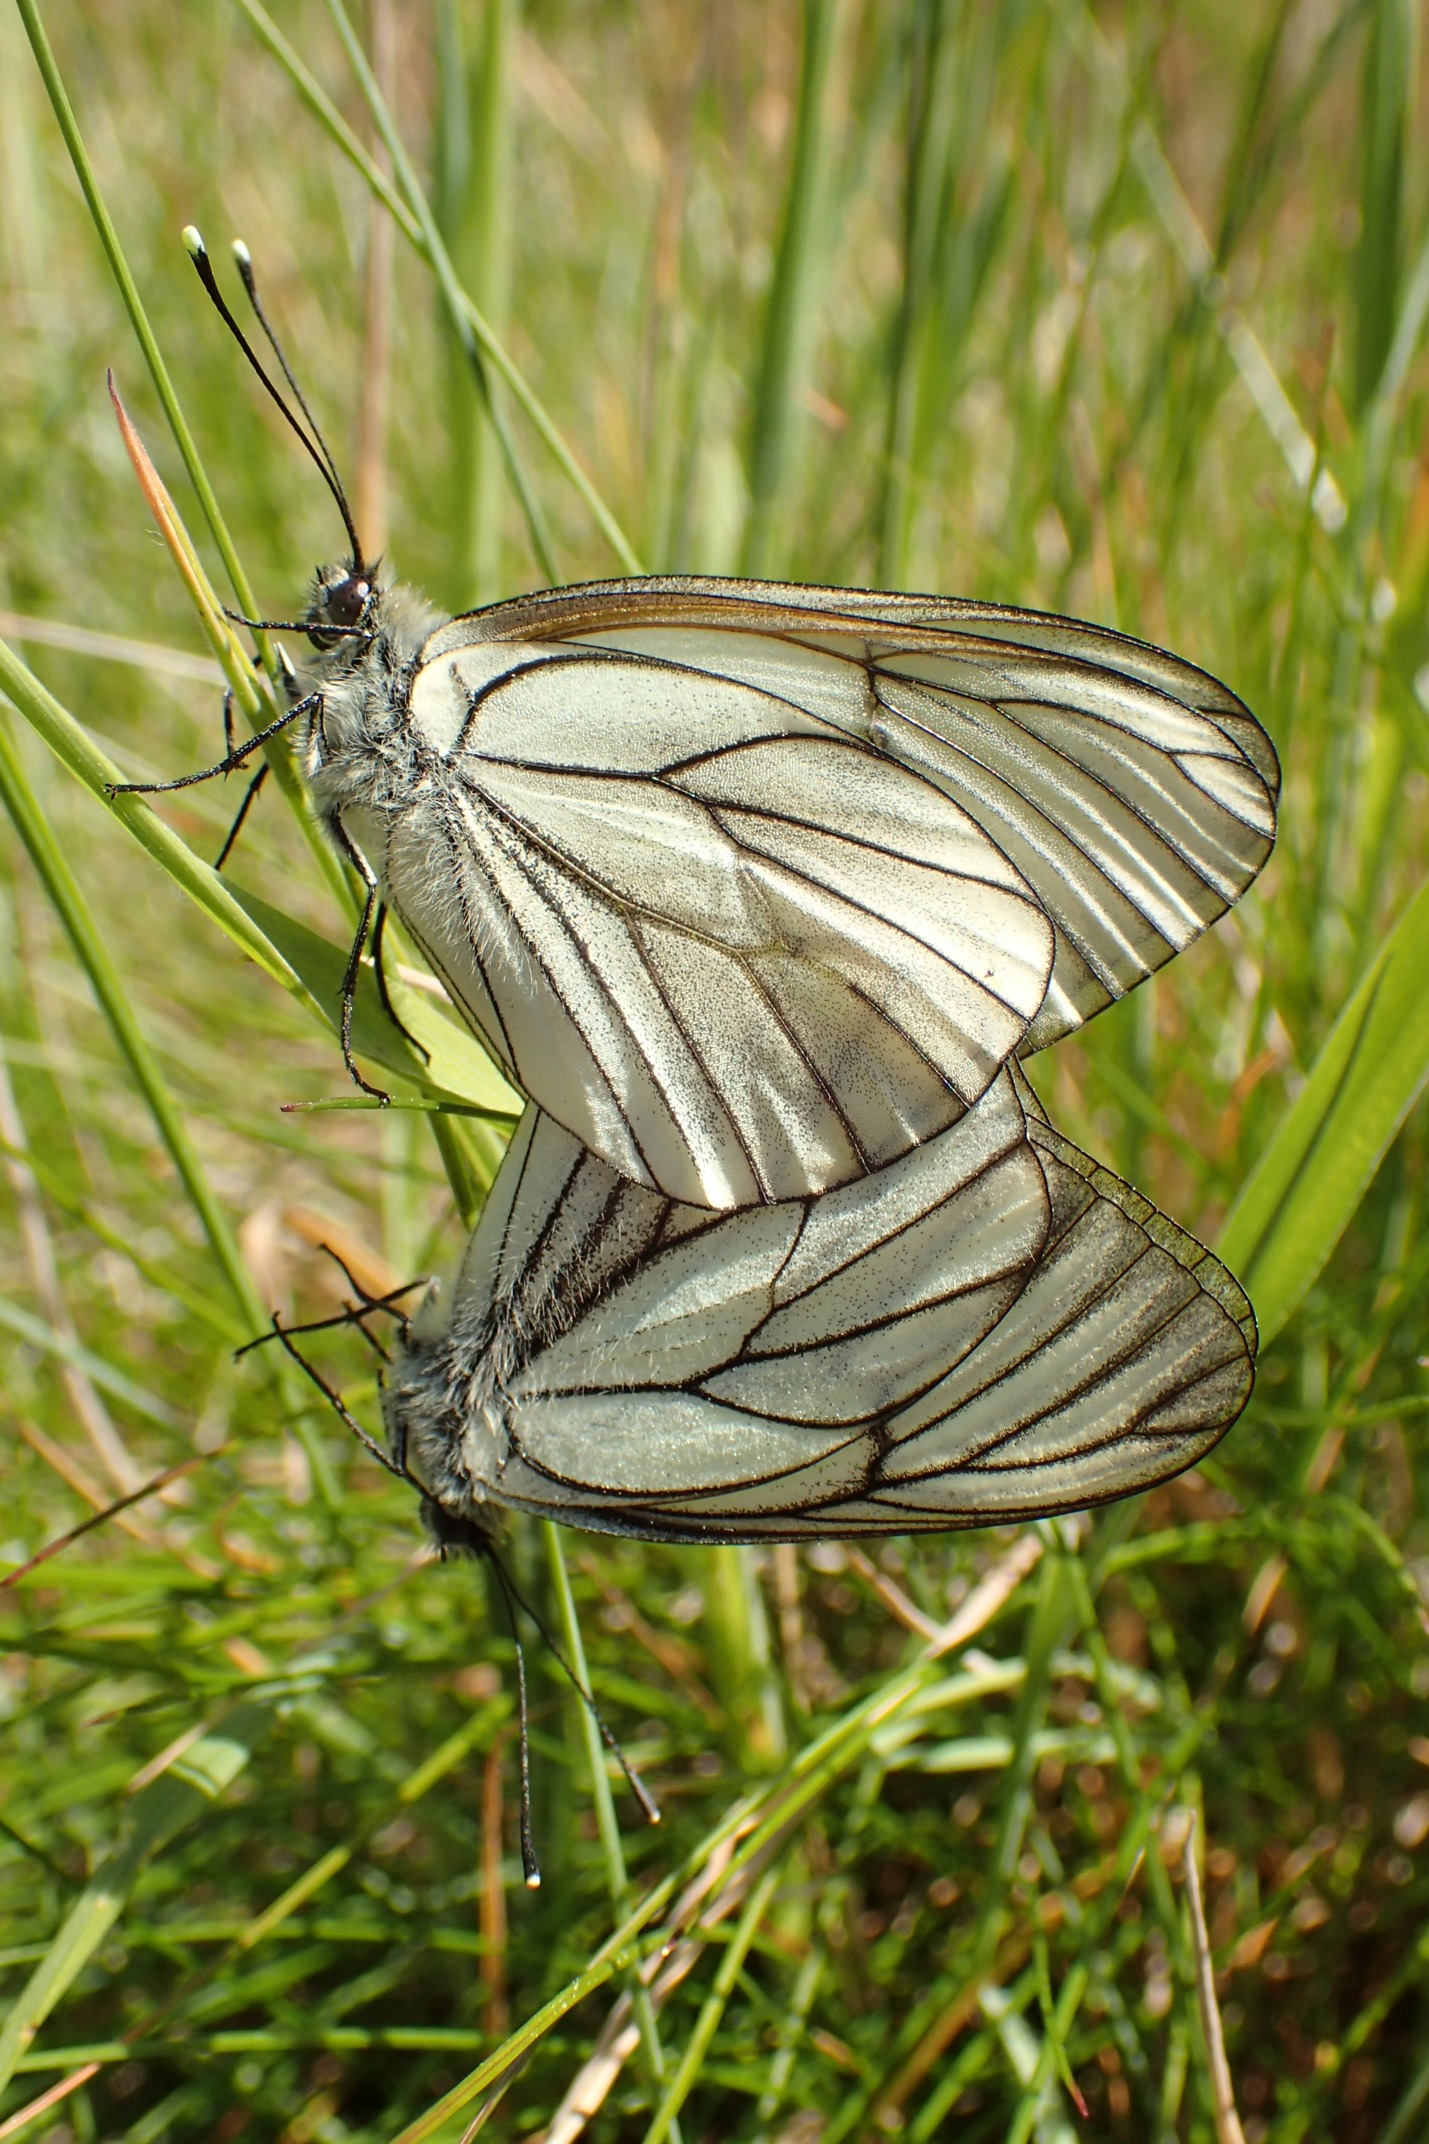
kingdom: Animalia
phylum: Arthropoda
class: Insecta
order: Lepidoptera
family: Pieridae
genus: Aporia
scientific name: Aporia crataegi
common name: Sortåret hvidvinge
